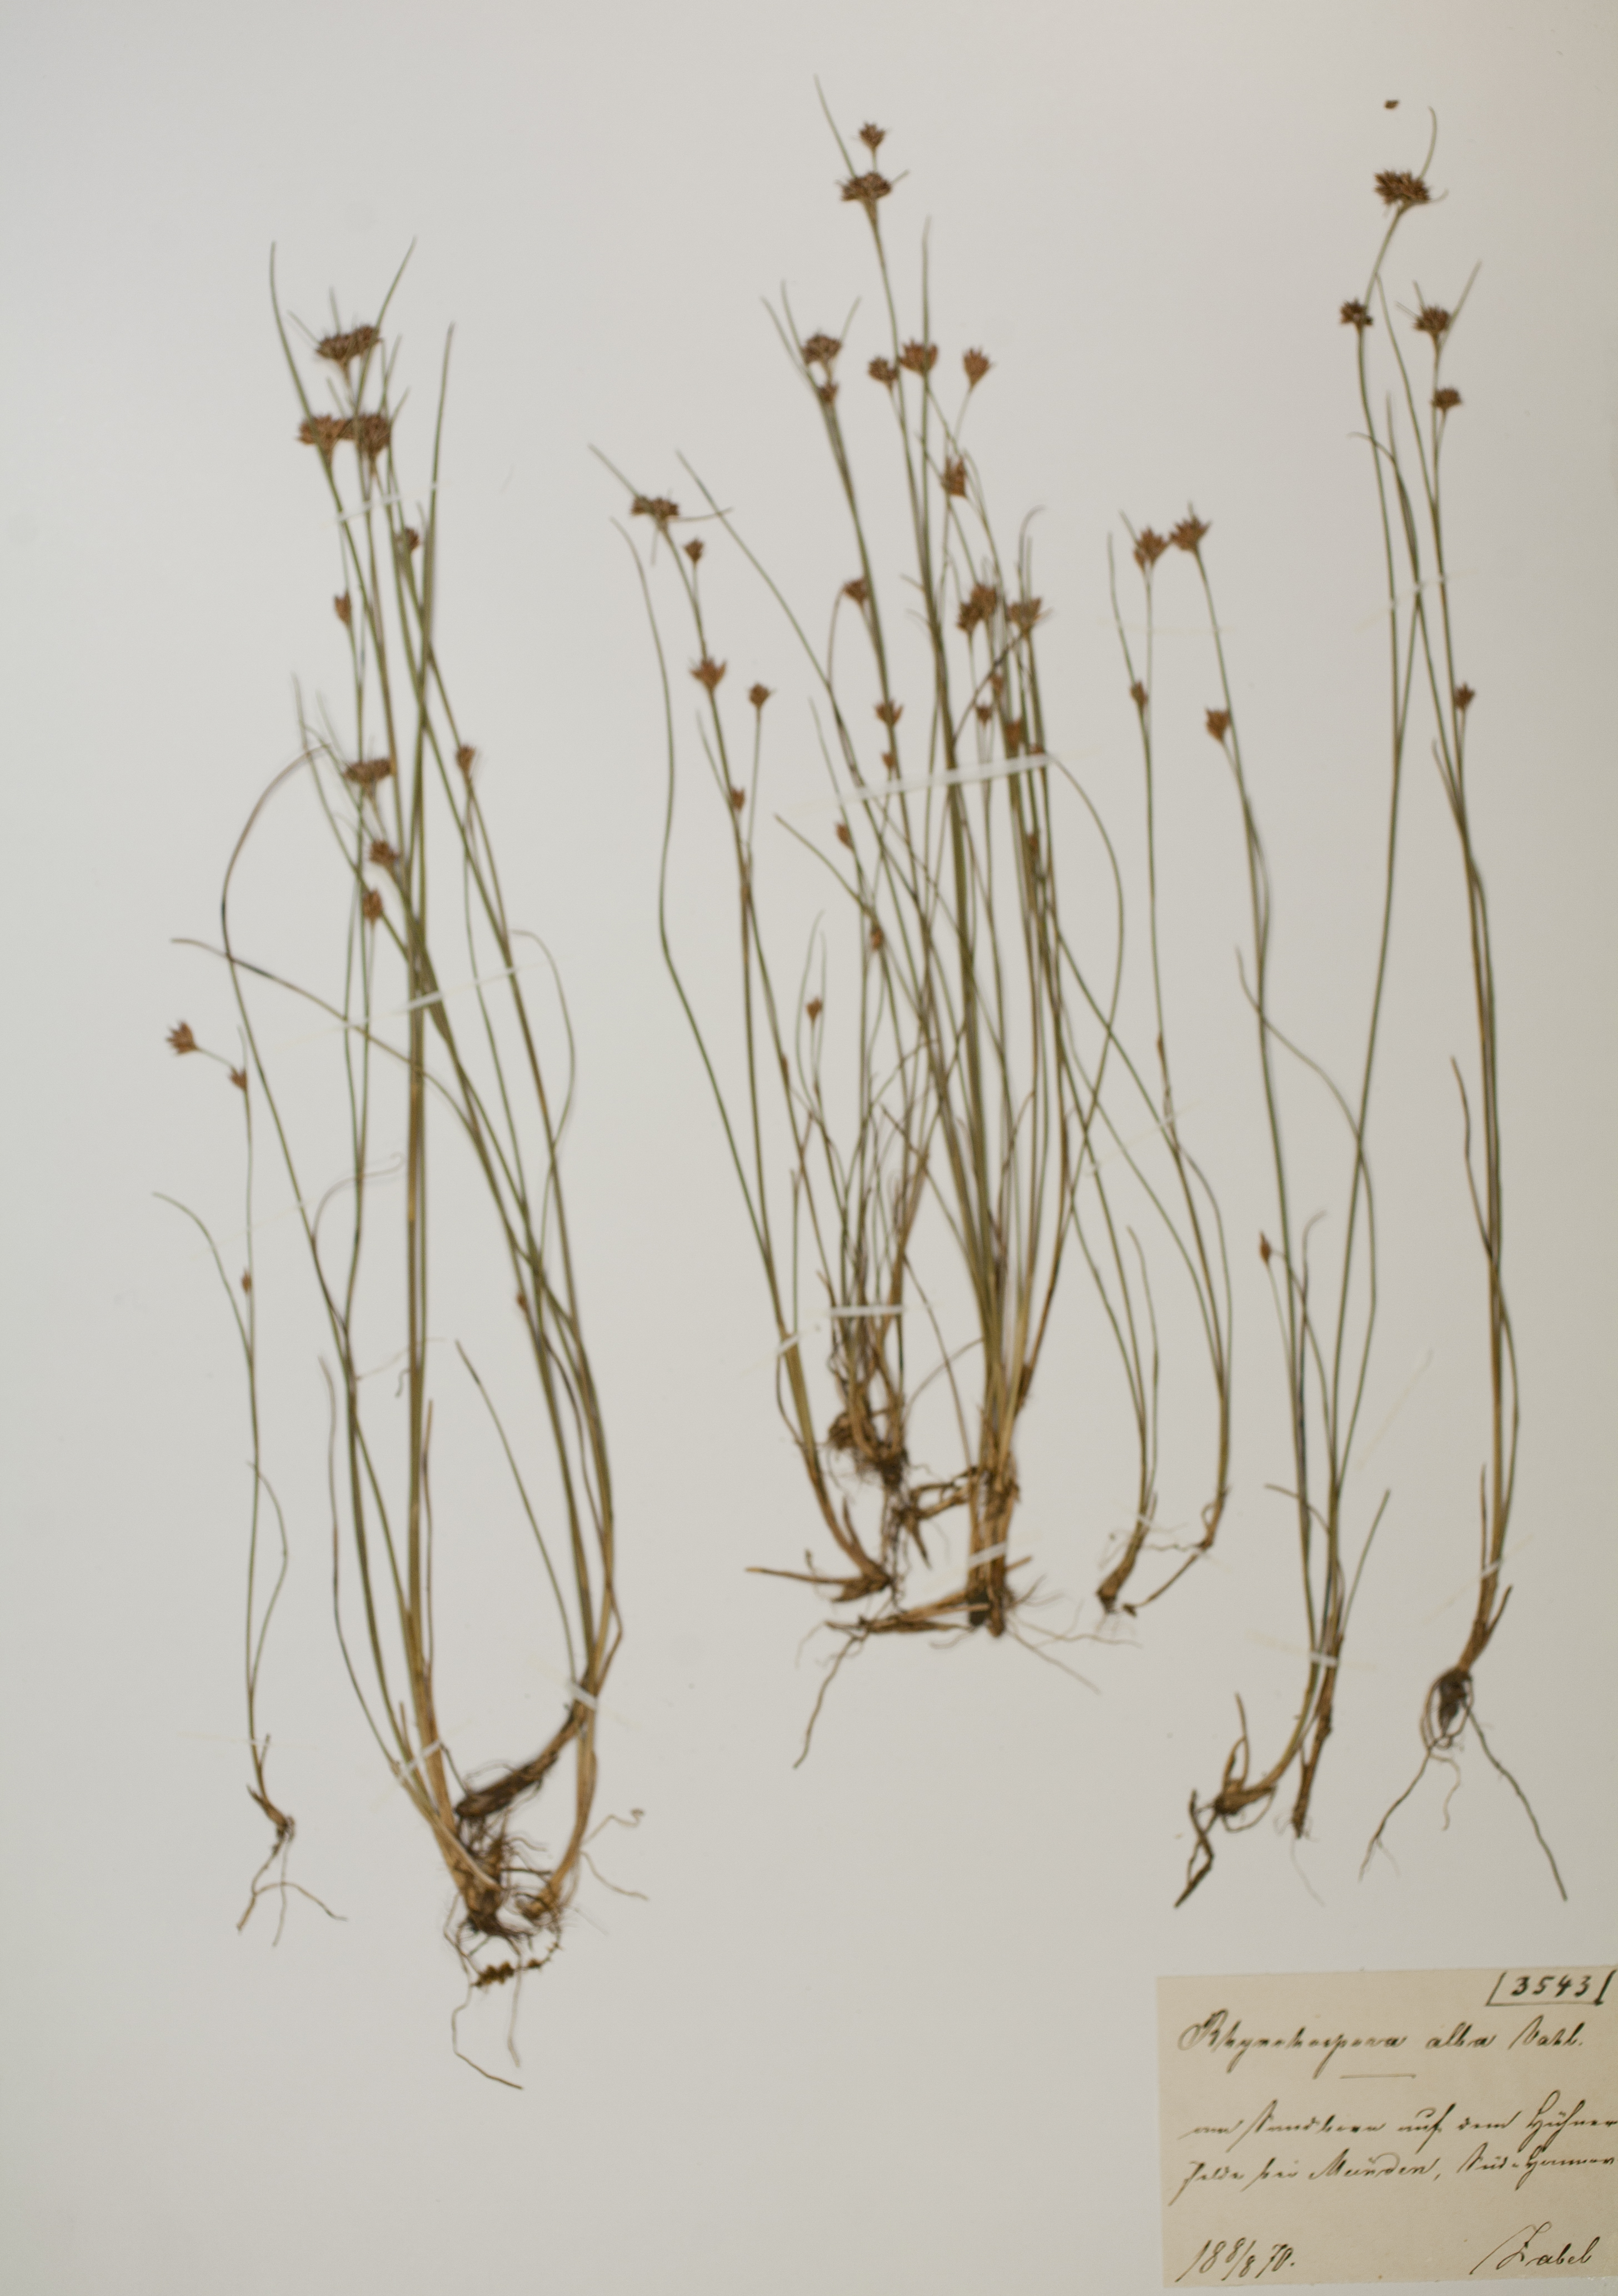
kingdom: Plantae
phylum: Tracheophyta
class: Liliopsida
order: Poales
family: Cyperaceae
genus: Rhynchospora
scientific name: Rhynchospora alba
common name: White beak-sedge
